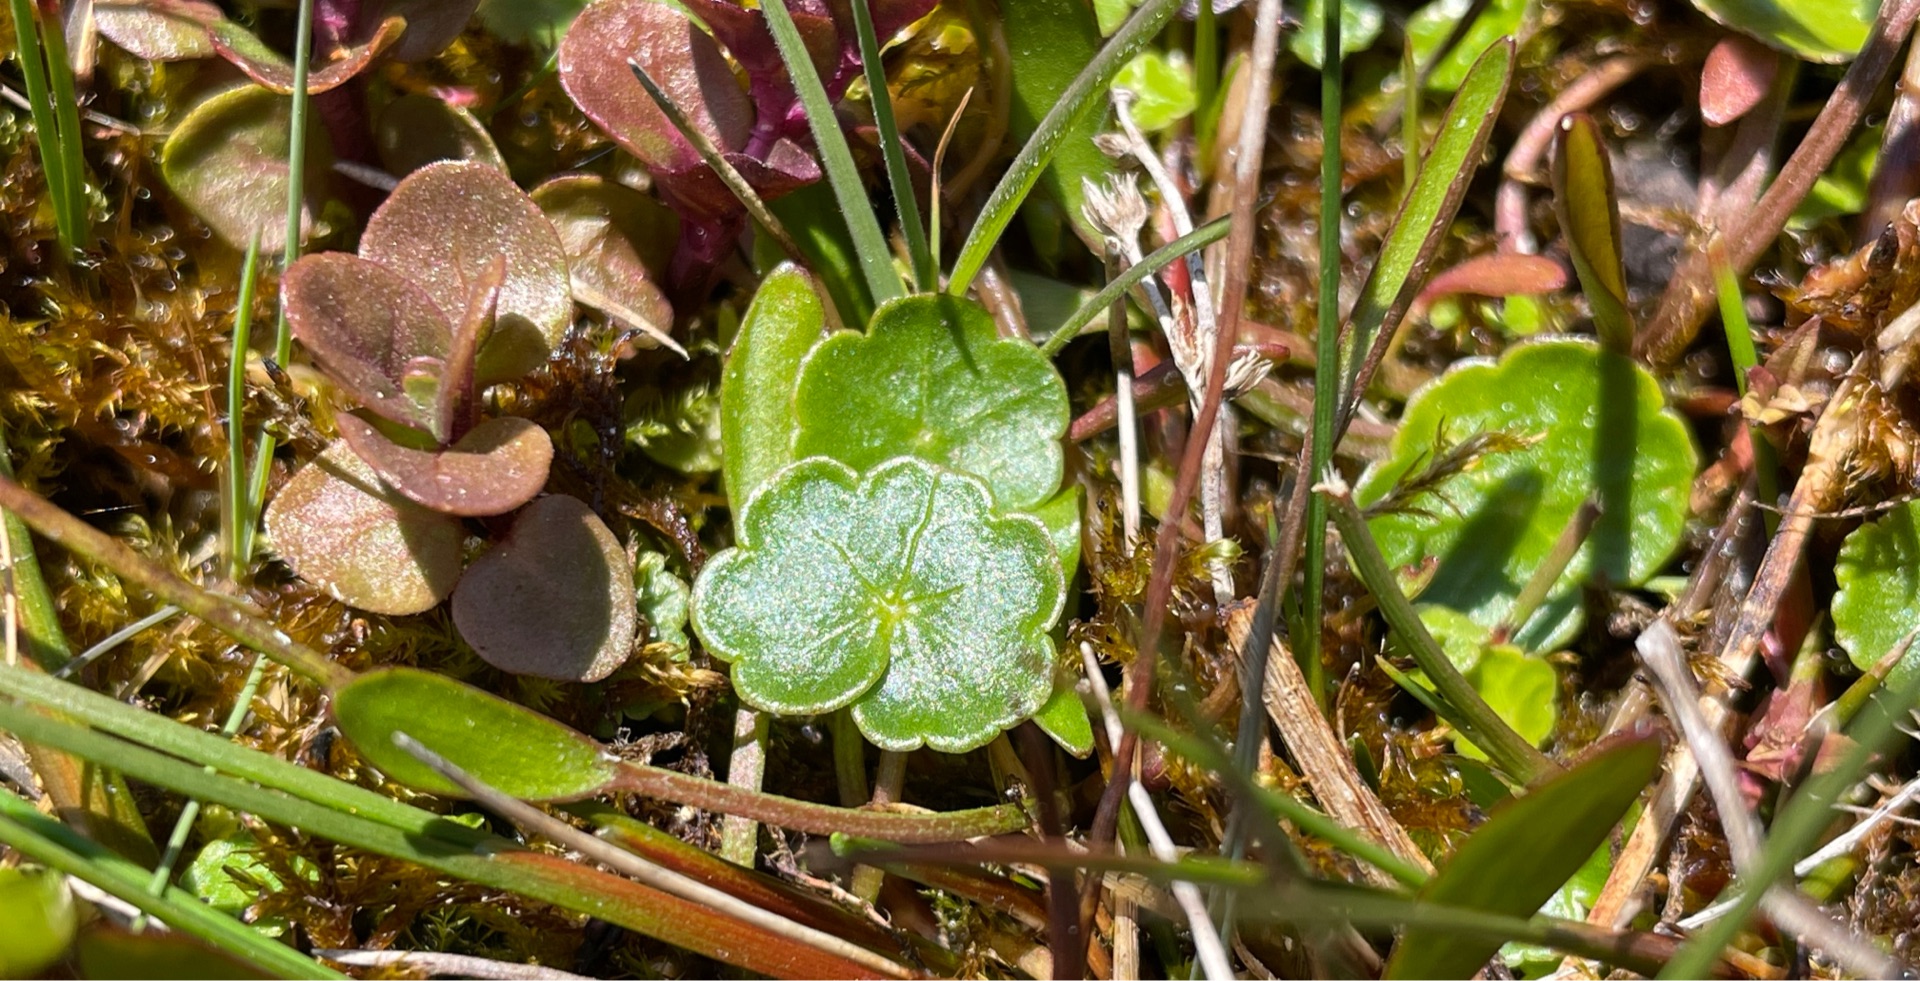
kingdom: Plantae
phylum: Tracheophyta
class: Magnoliopsida
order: Apiales
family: Araliaceae
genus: Hydrocotyle
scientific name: Hydrocotyle vulgaris
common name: Vandnavle
